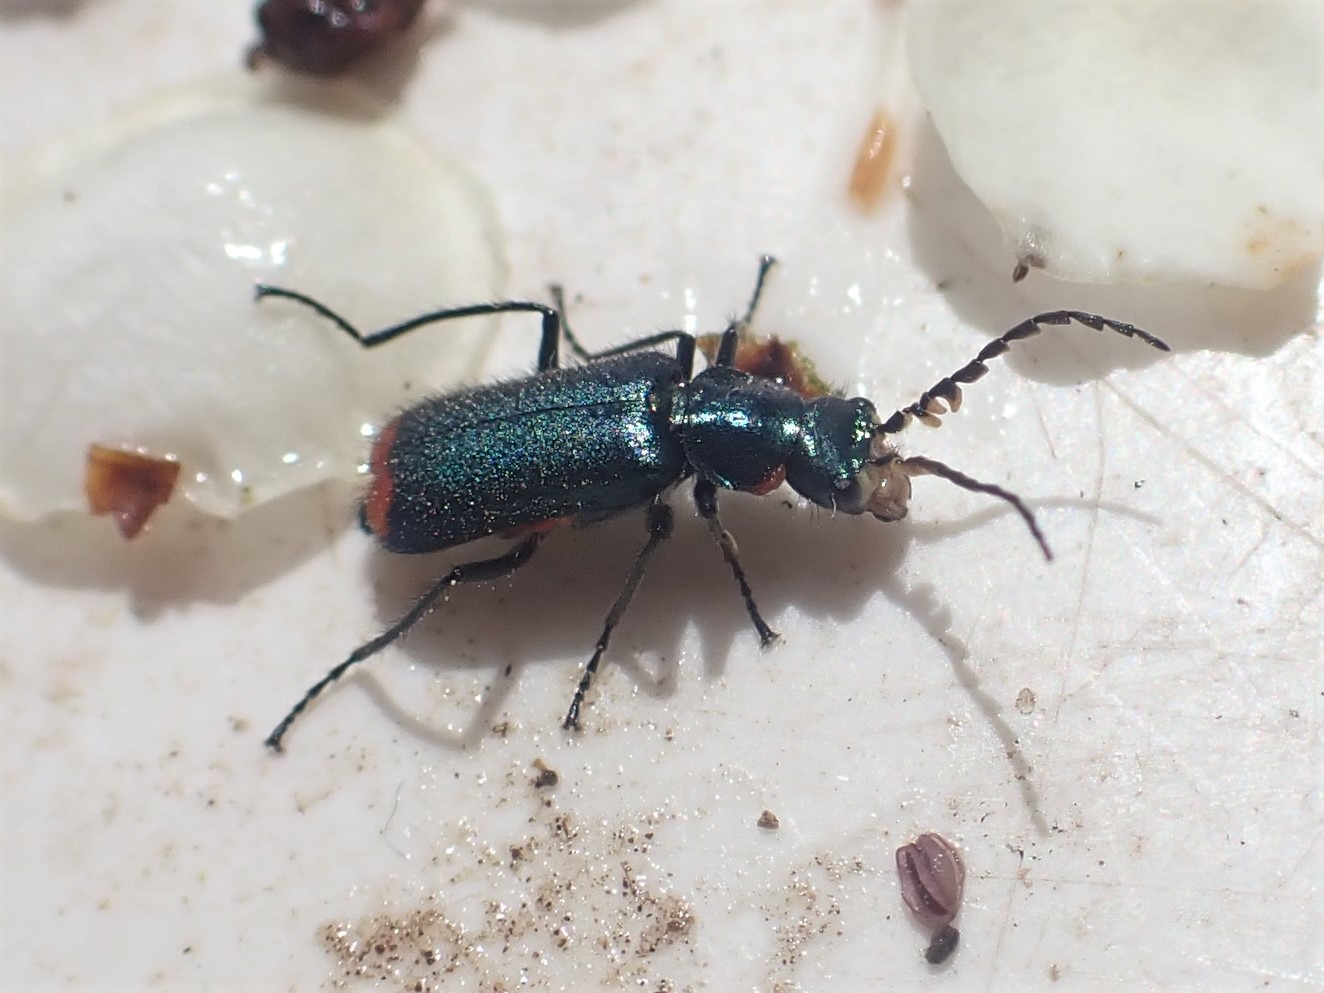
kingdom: Animalia
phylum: Arthropoda
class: Insecta
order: Coleoptera
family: Melyridae
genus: Malachius
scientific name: Malachius bipustulatus
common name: Skovmalakitbille
